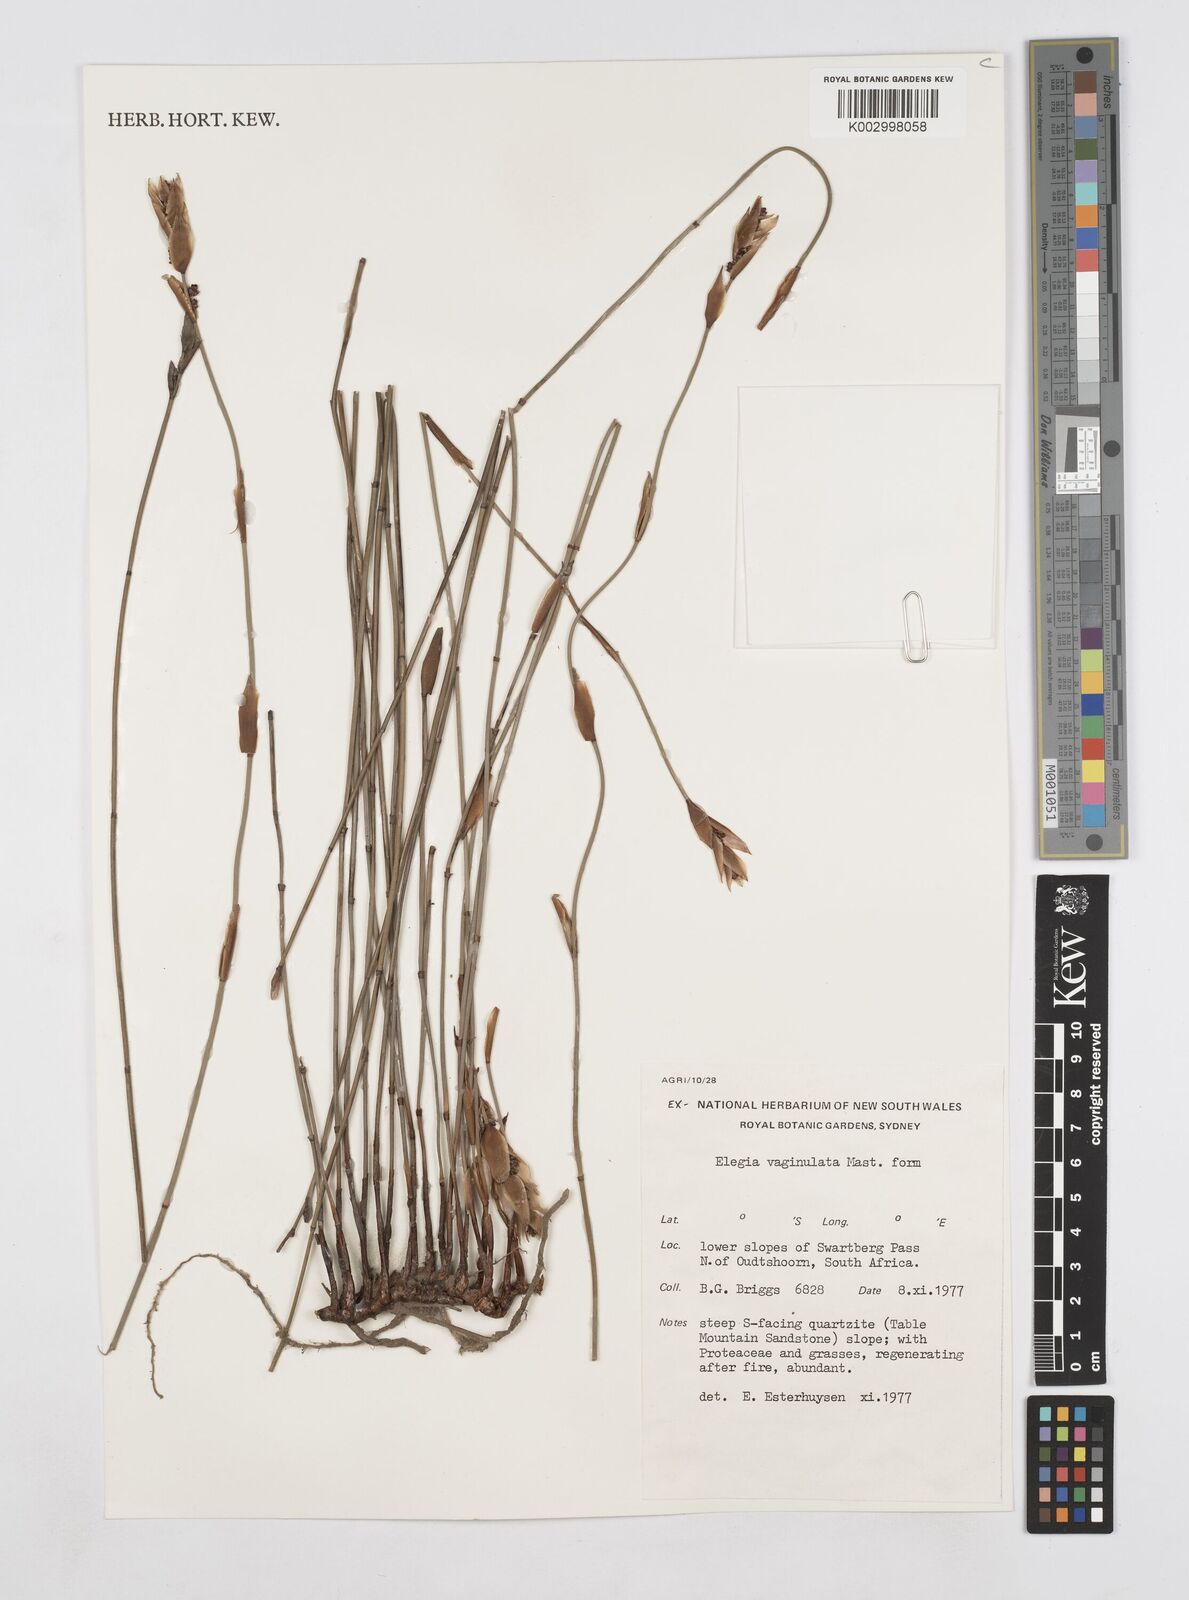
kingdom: Plantae
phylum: Tracheophyta
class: Liliopsida
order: Poales
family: Restionaceae
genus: Elegia
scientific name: Elegia vaginulata
